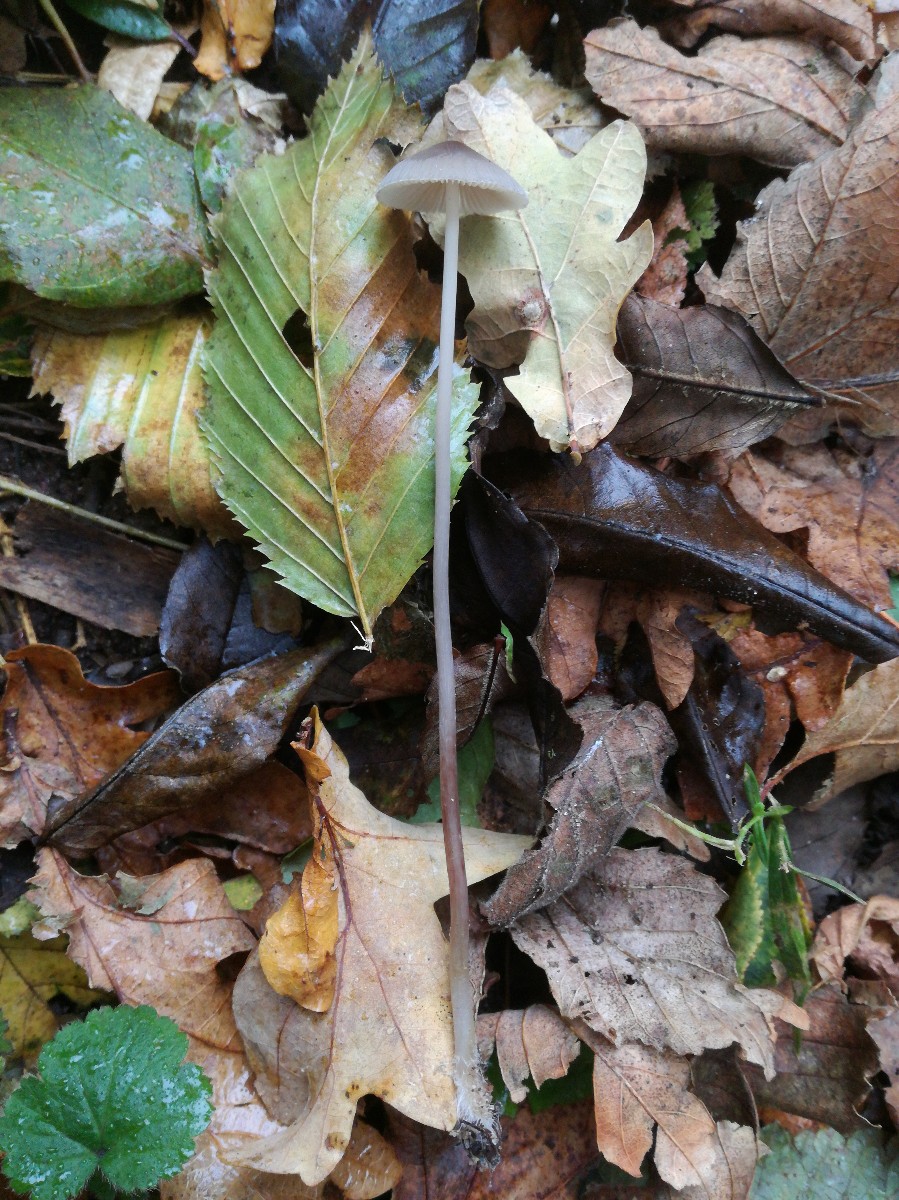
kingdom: Fungi
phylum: Basidiomycota
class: Agaricomycetes
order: Agaricales
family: Mycenaceae
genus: Mycena
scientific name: Mycena polygramma
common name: mangestribet huesvamp
